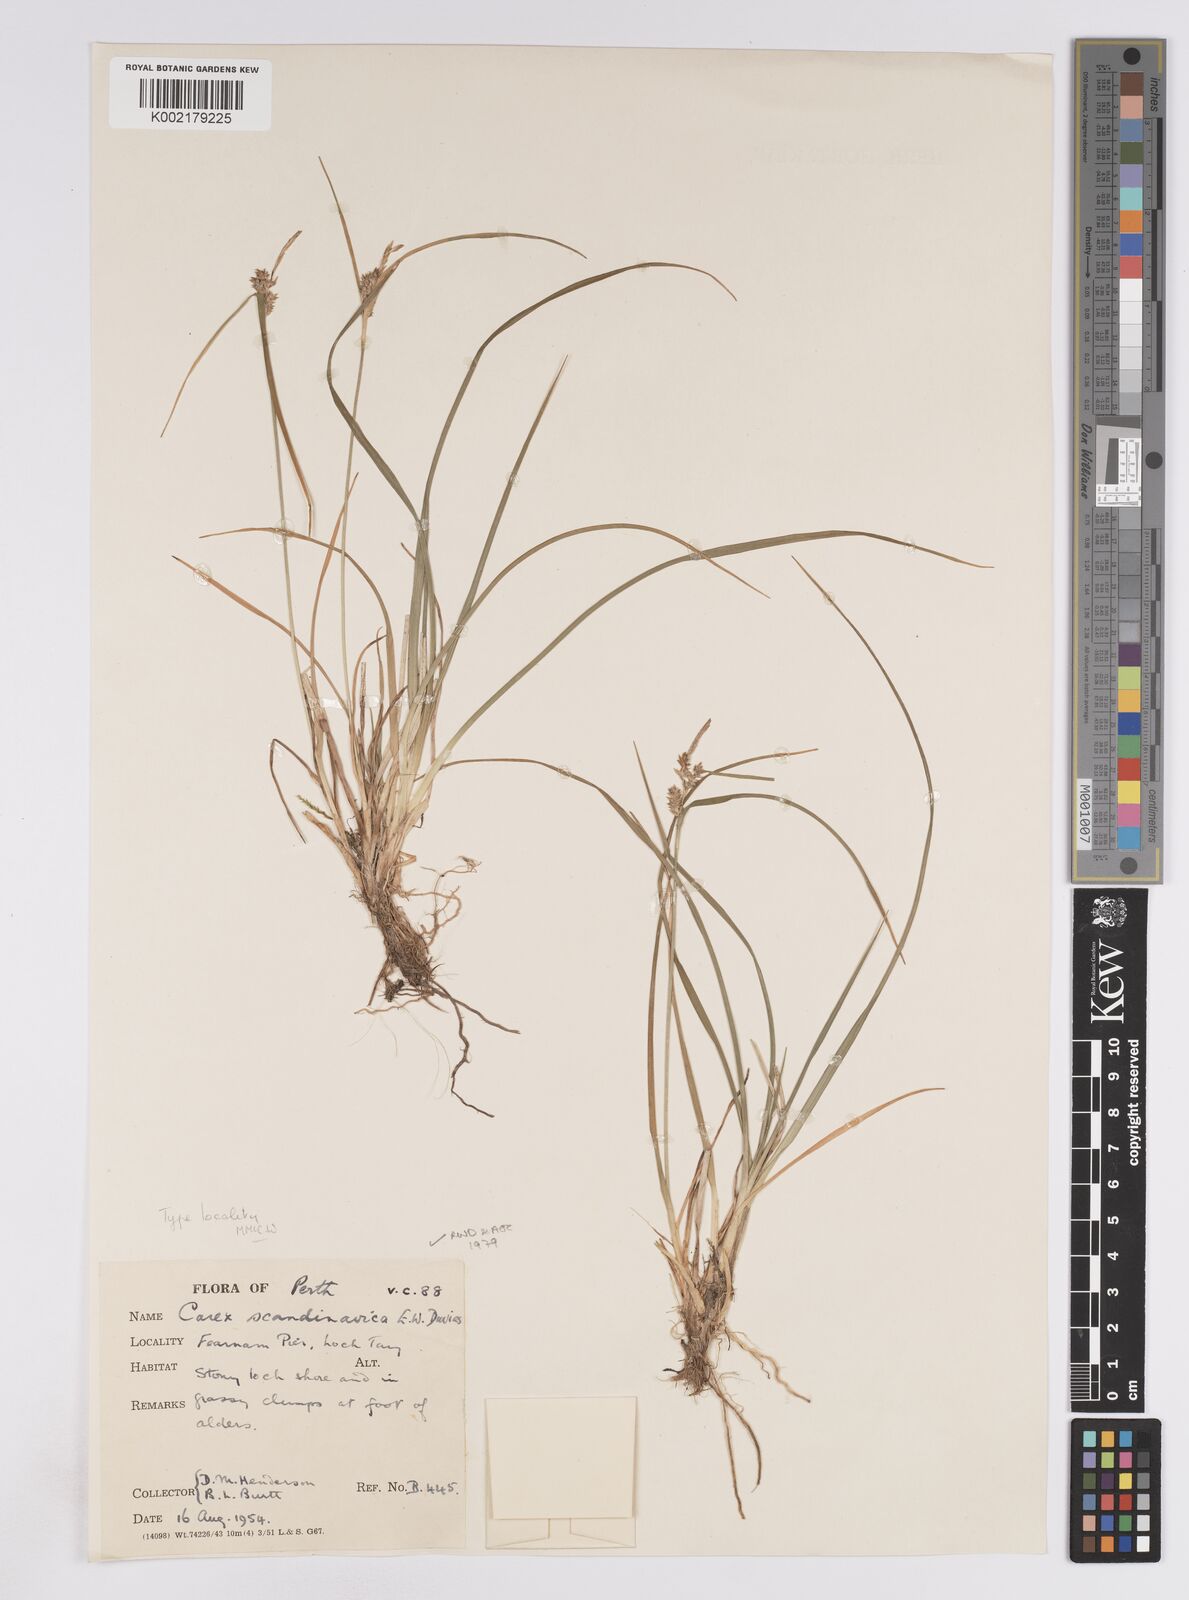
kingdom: Plantae
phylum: Tracheophyta
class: Liliopsida
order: Poales
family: Cyperaceae
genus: Carex
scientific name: Carex oederi
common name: Common & small-fruited yellow-sedge
